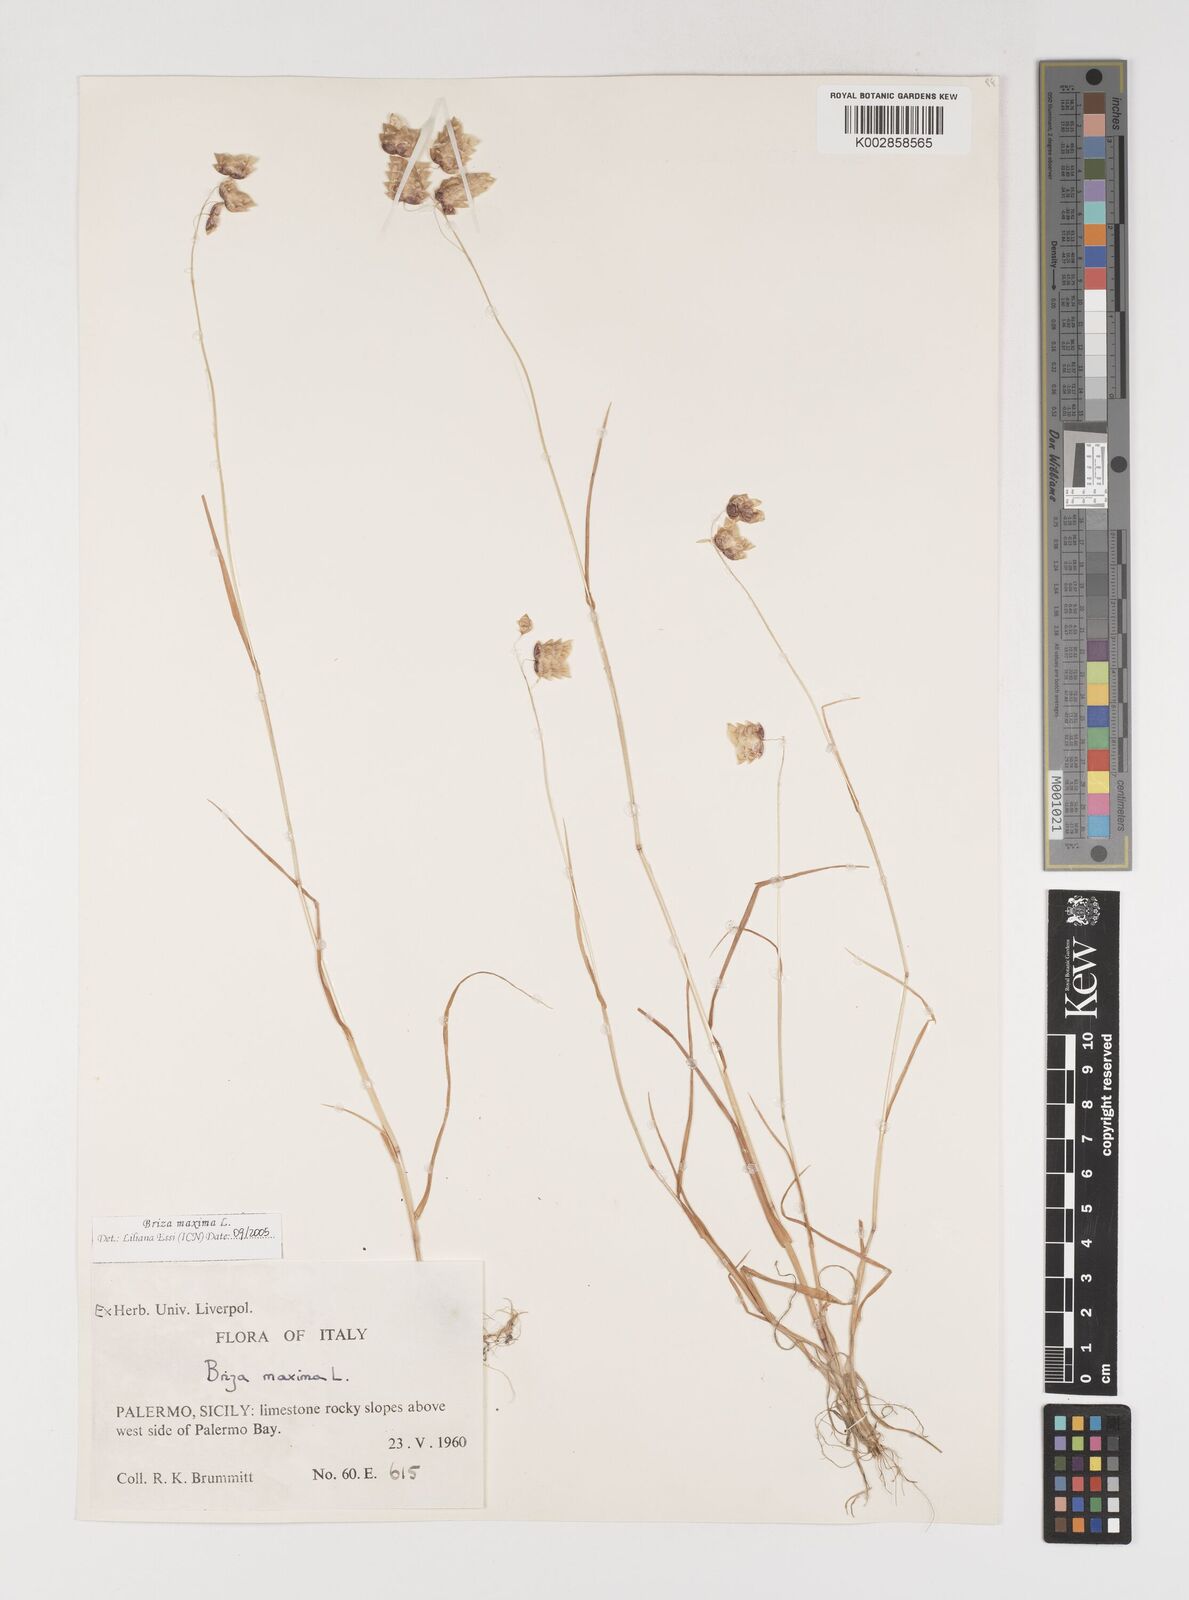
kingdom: Plantae
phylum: Tracheophyta
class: Liliopsida
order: Poales
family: Poaceae
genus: Briza
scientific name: Briza maxima
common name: Big quakinggrass
